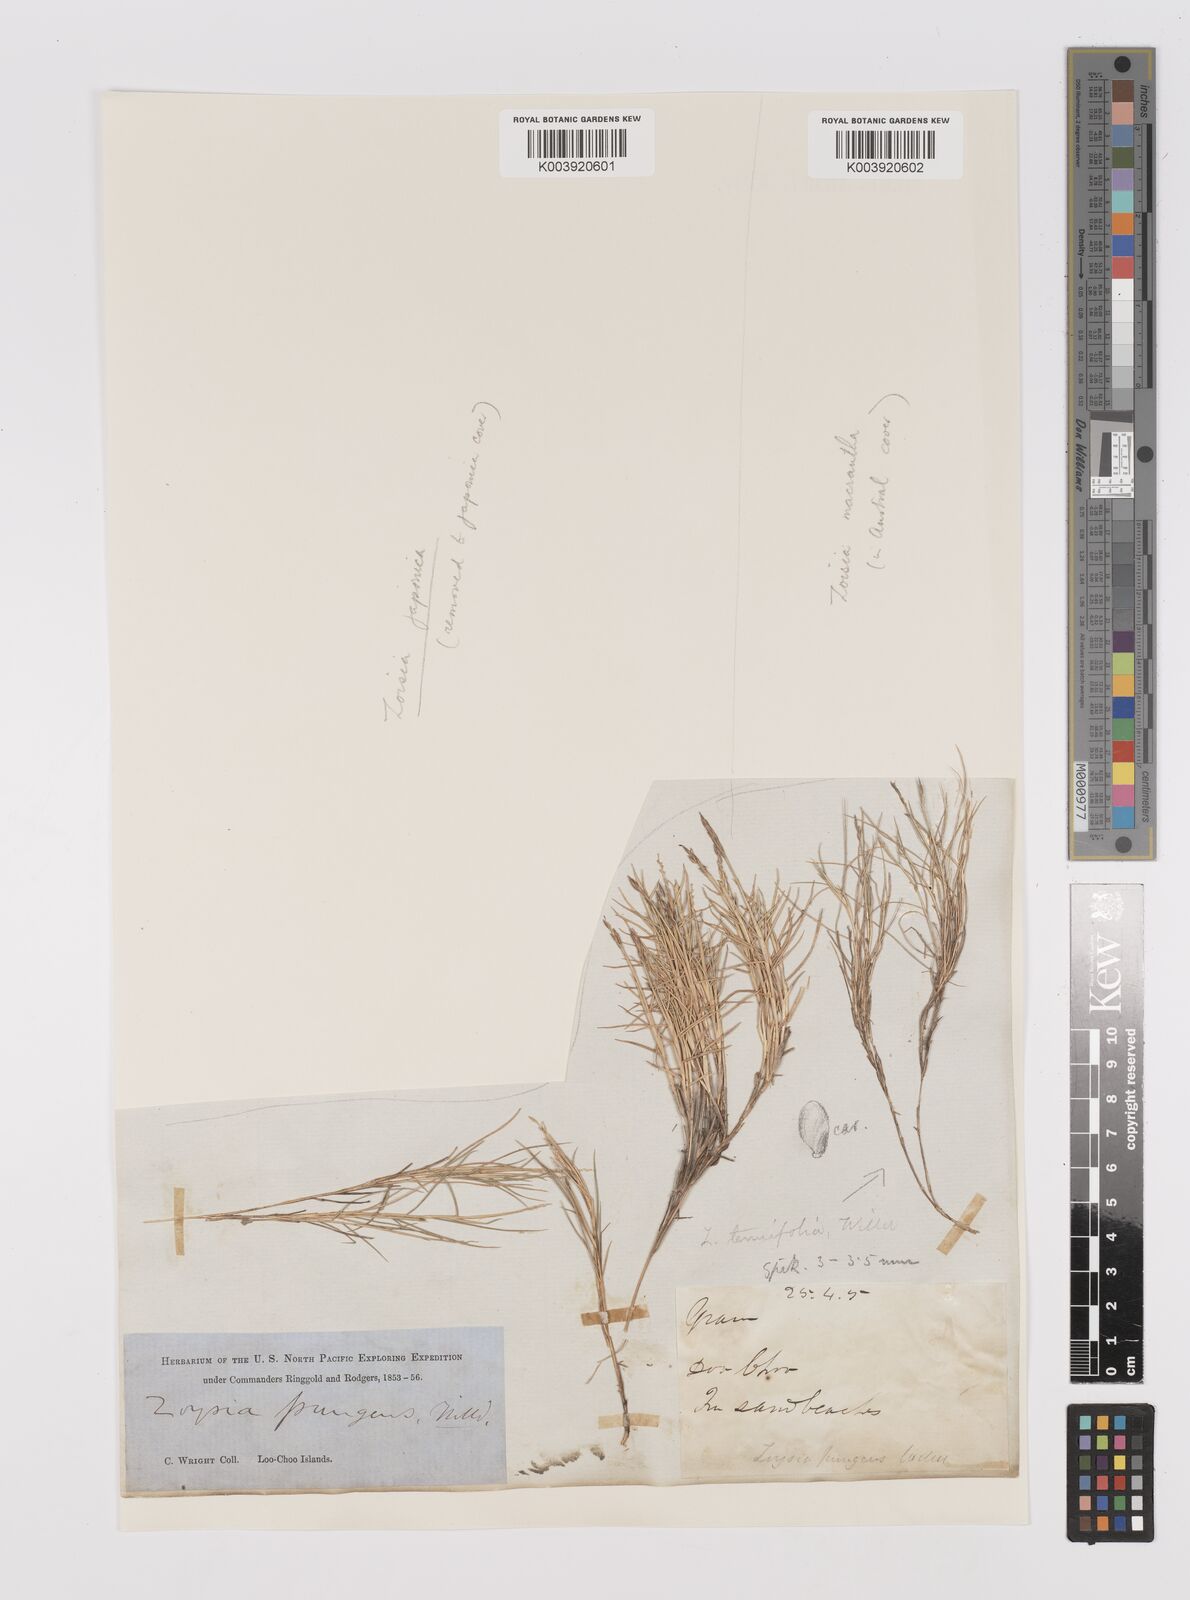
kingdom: Plantae
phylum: Tracheophyta
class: Liliopsida
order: Poales
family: Poaceae
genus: Zoysia
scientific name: Zoysia matrella
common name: Manila grass
